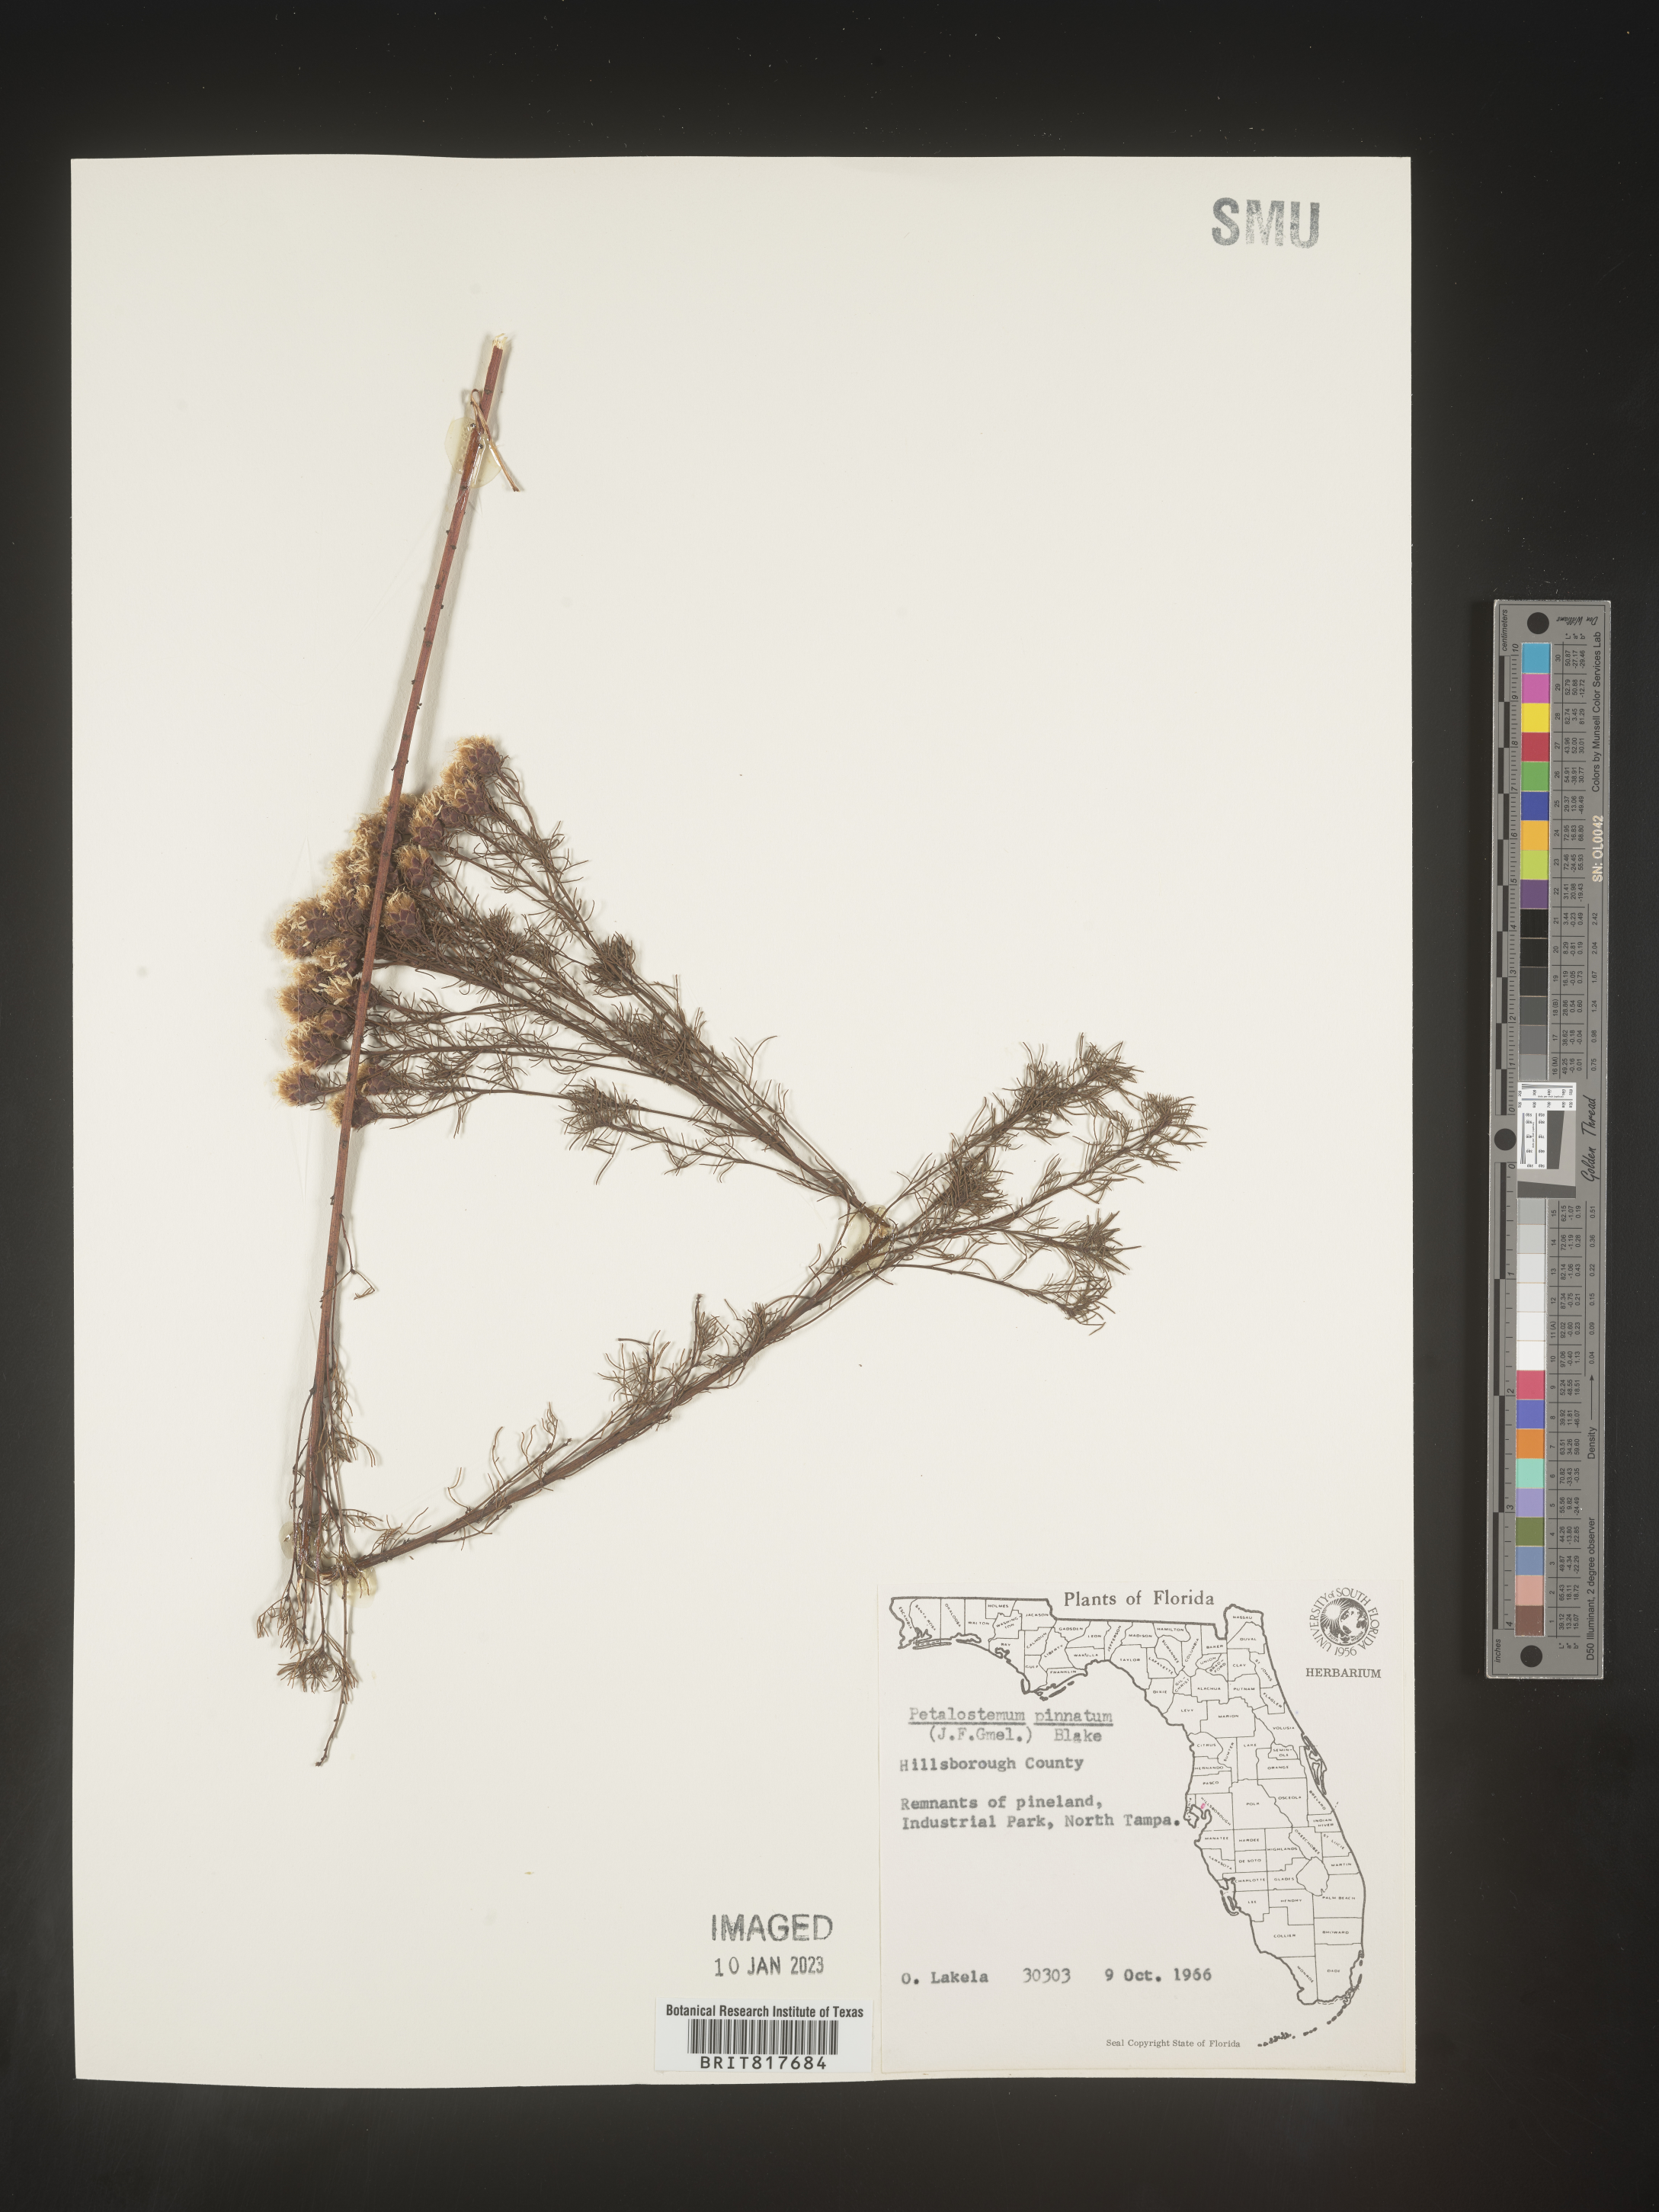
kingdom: Plantae
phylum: Tracheophyta
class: Magnoliopsida
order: Fabales
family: Fabaceae
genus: Dalea
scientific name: Dalea pinnata
